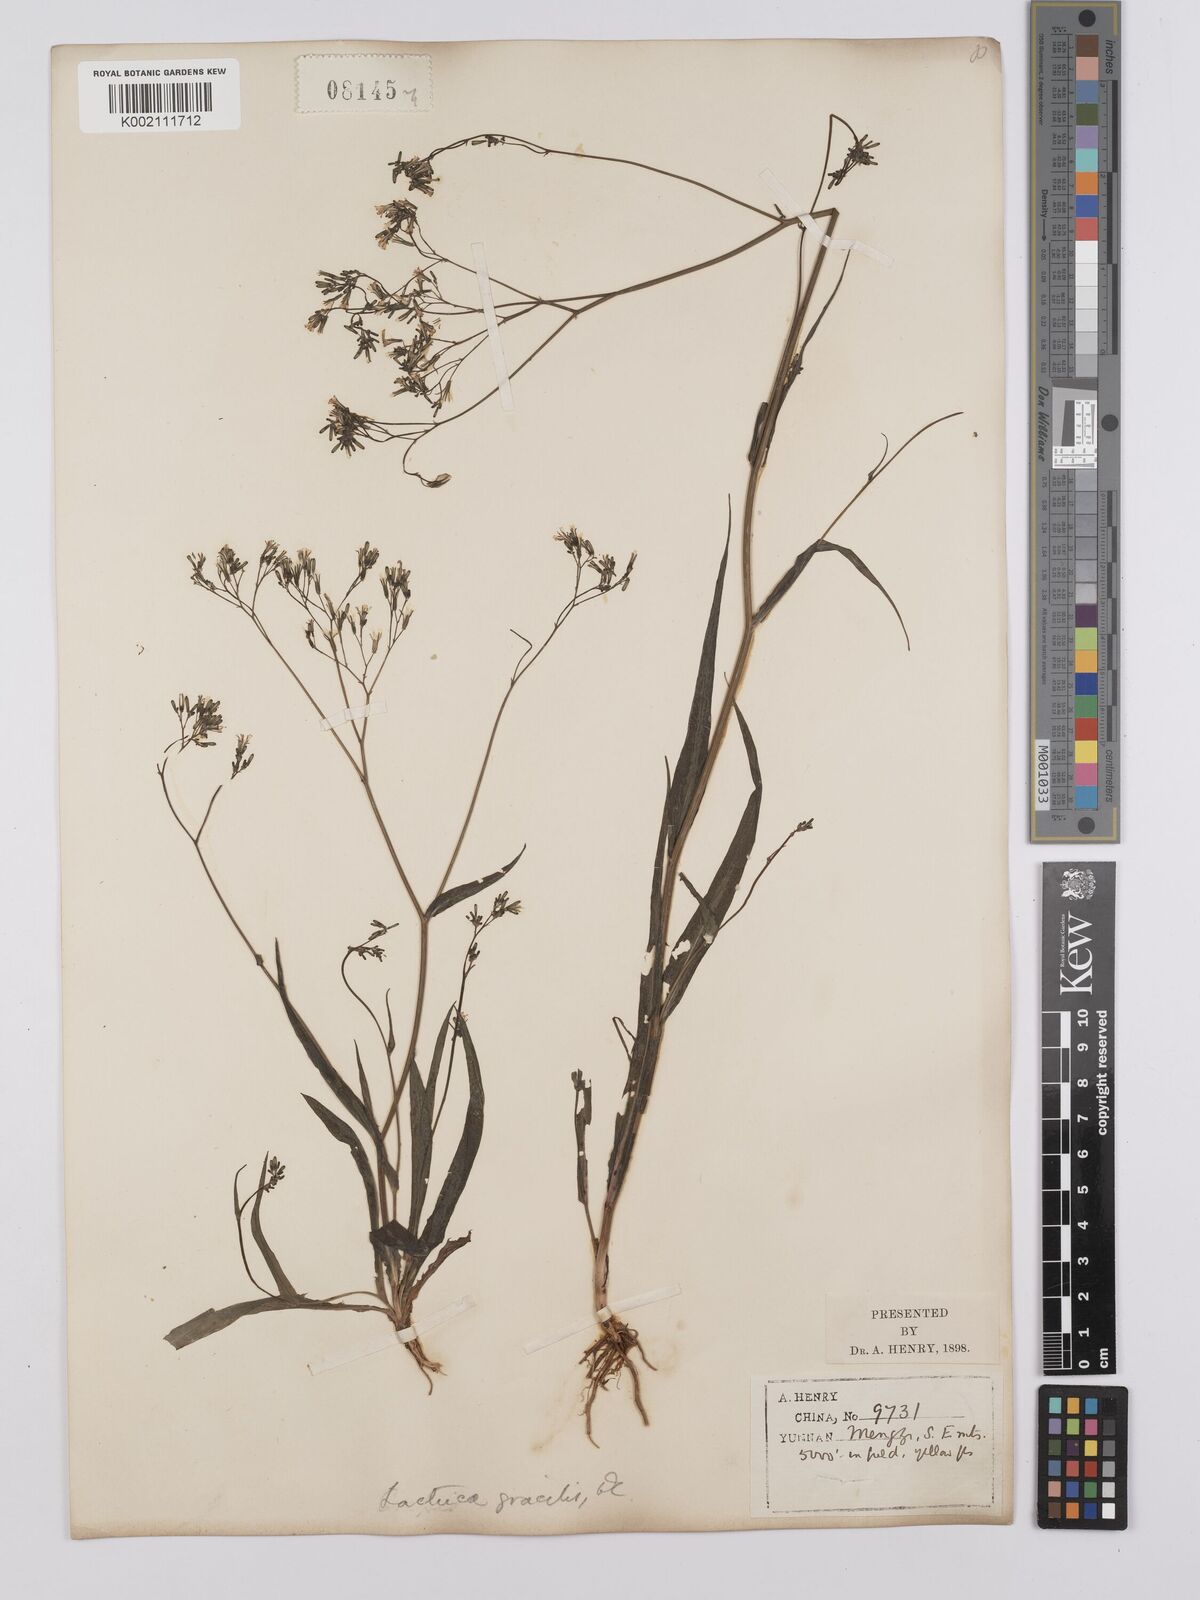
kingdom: Plantae
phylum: Tracheophyta
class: Magnoliopsida
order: Asterales
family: Asteraceae
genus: Ixeridium
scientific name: Ixeridium gracile
